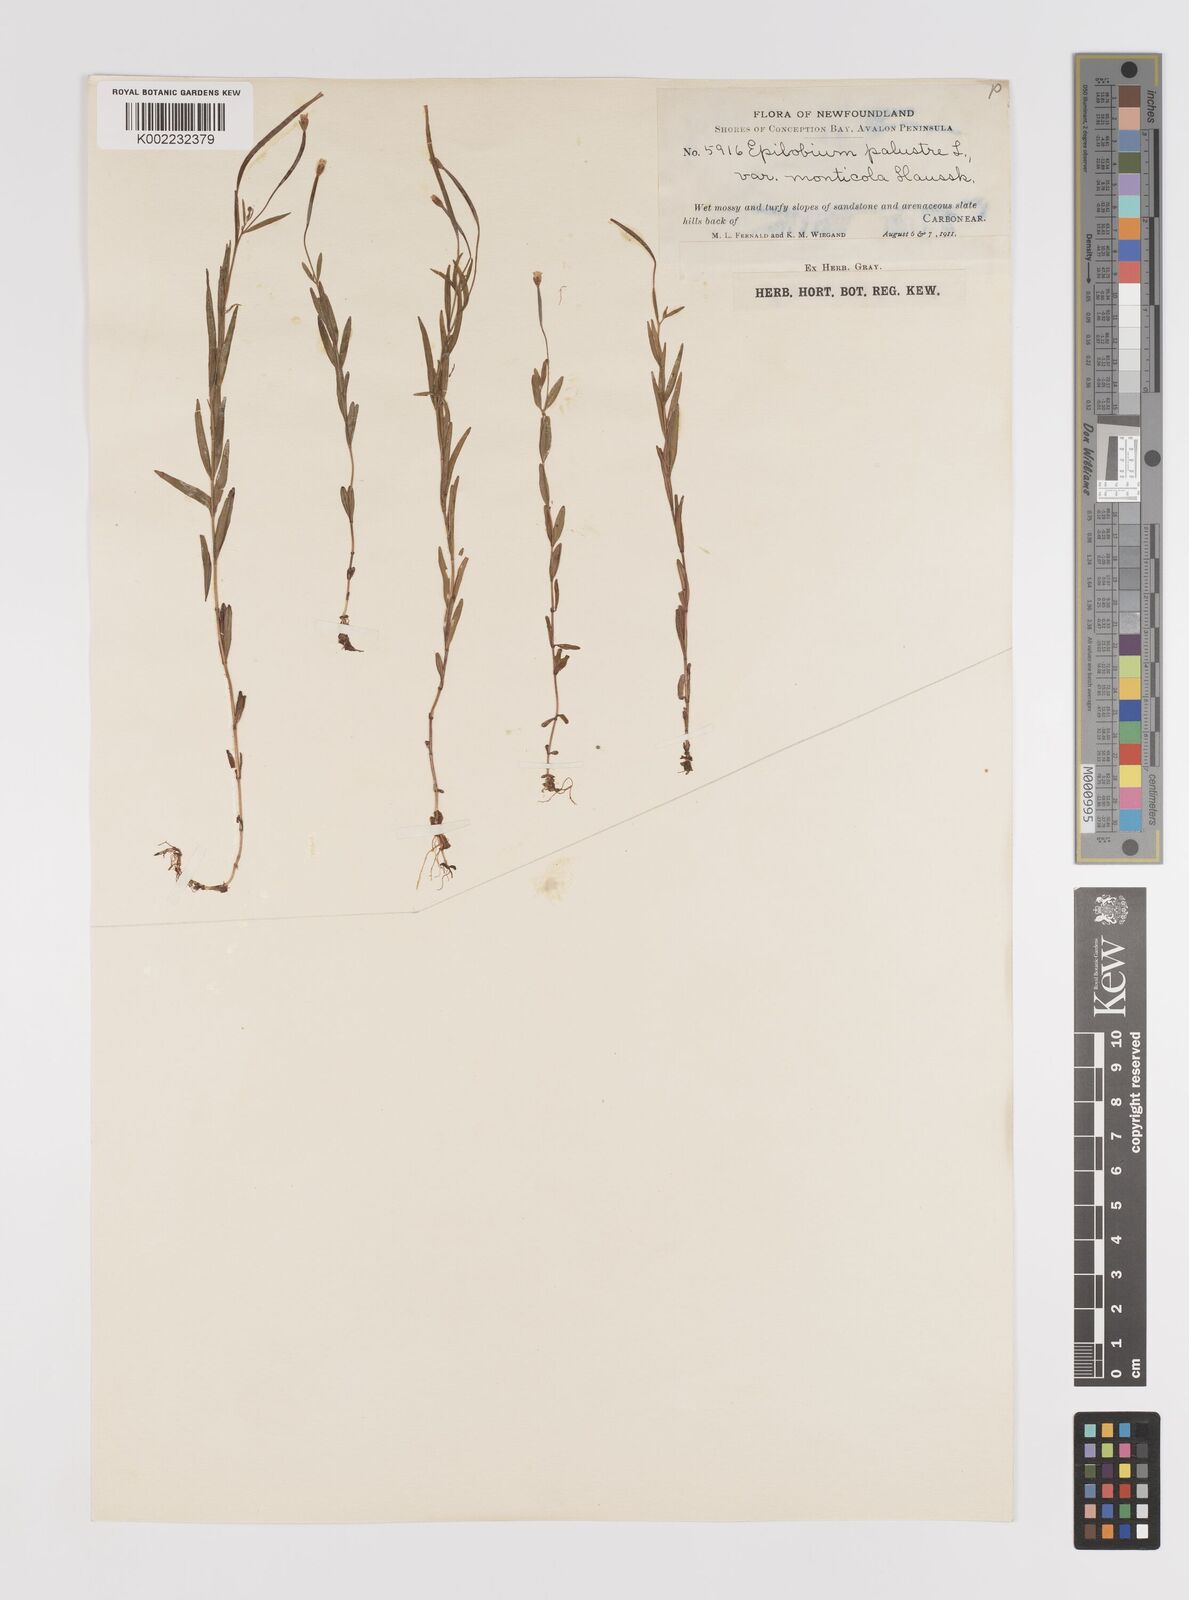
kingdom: Plantae
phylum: Tracheophyta
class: Magnoliopsida
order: Myrtales
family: Onagraceae
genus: Epilobium
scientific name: Epilobium palustre
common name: Marsh willowherb
